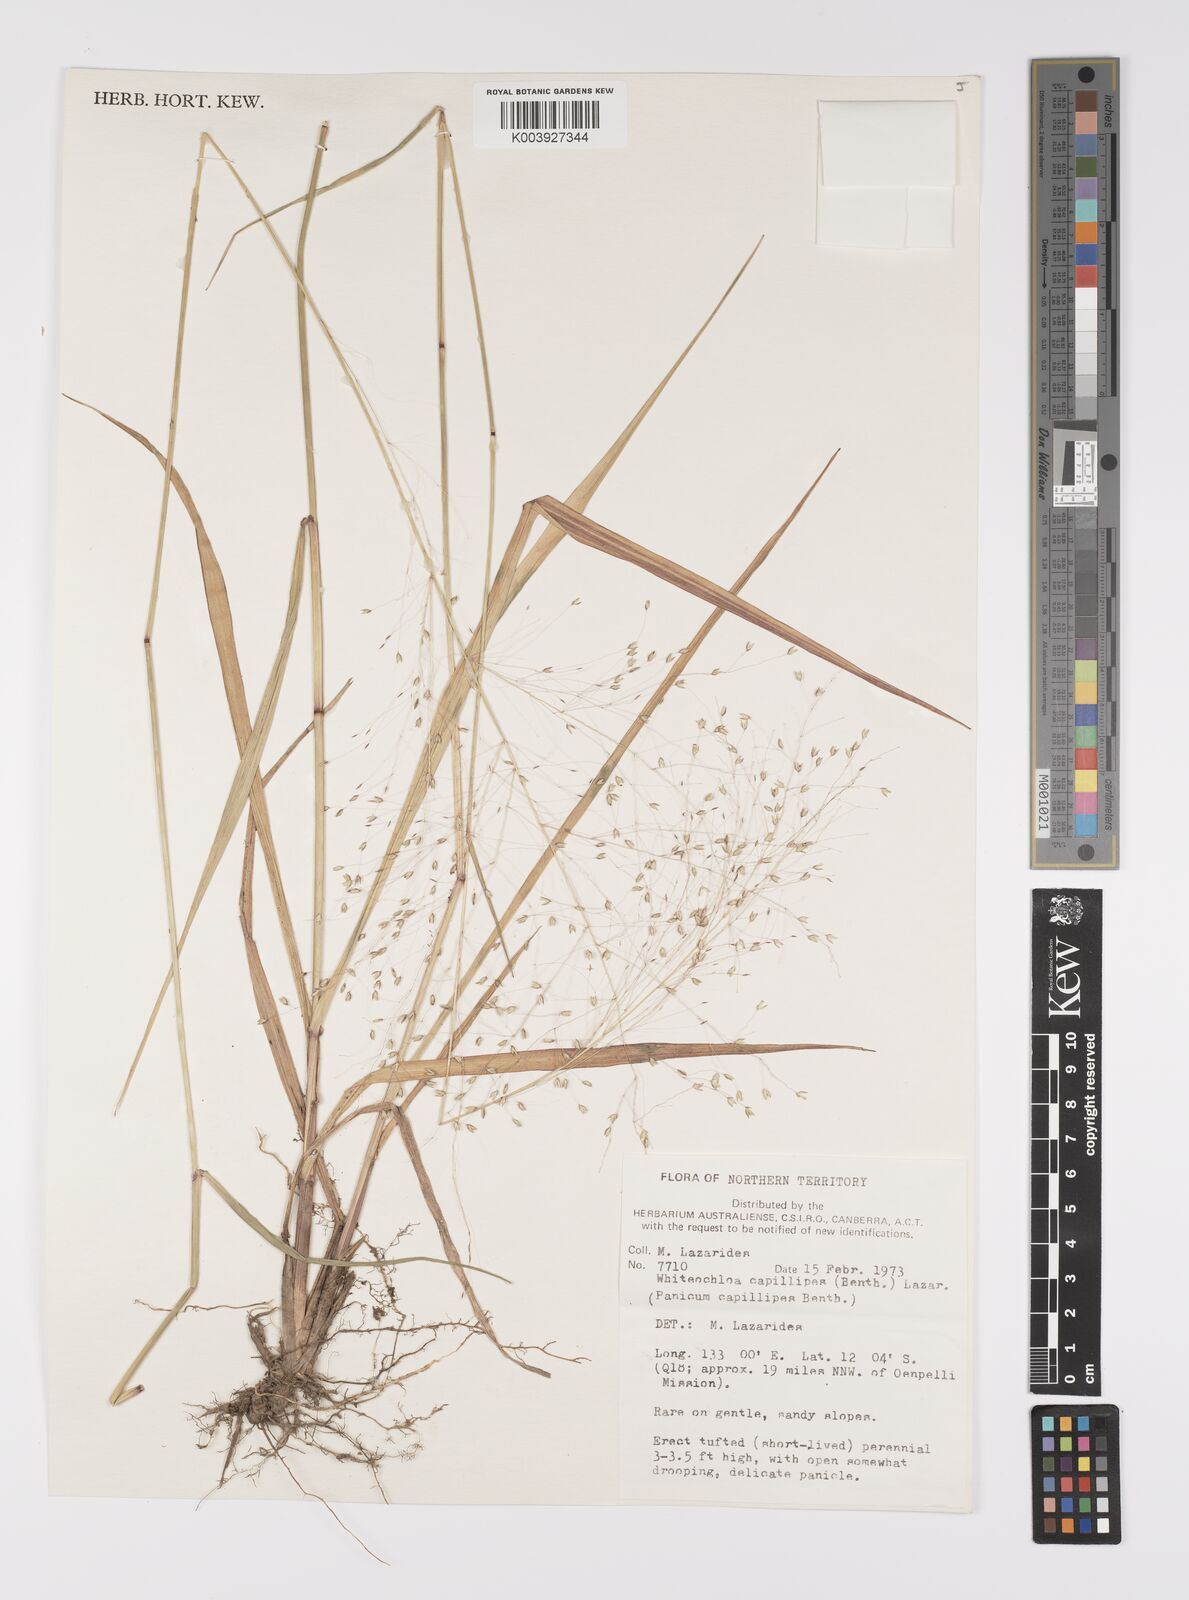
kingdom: Plantae
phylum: Tracheophyta
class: Liliopsida
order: Poales
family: Poaceae
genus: Whiteochloa
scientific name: Whiteochloa capillipes
